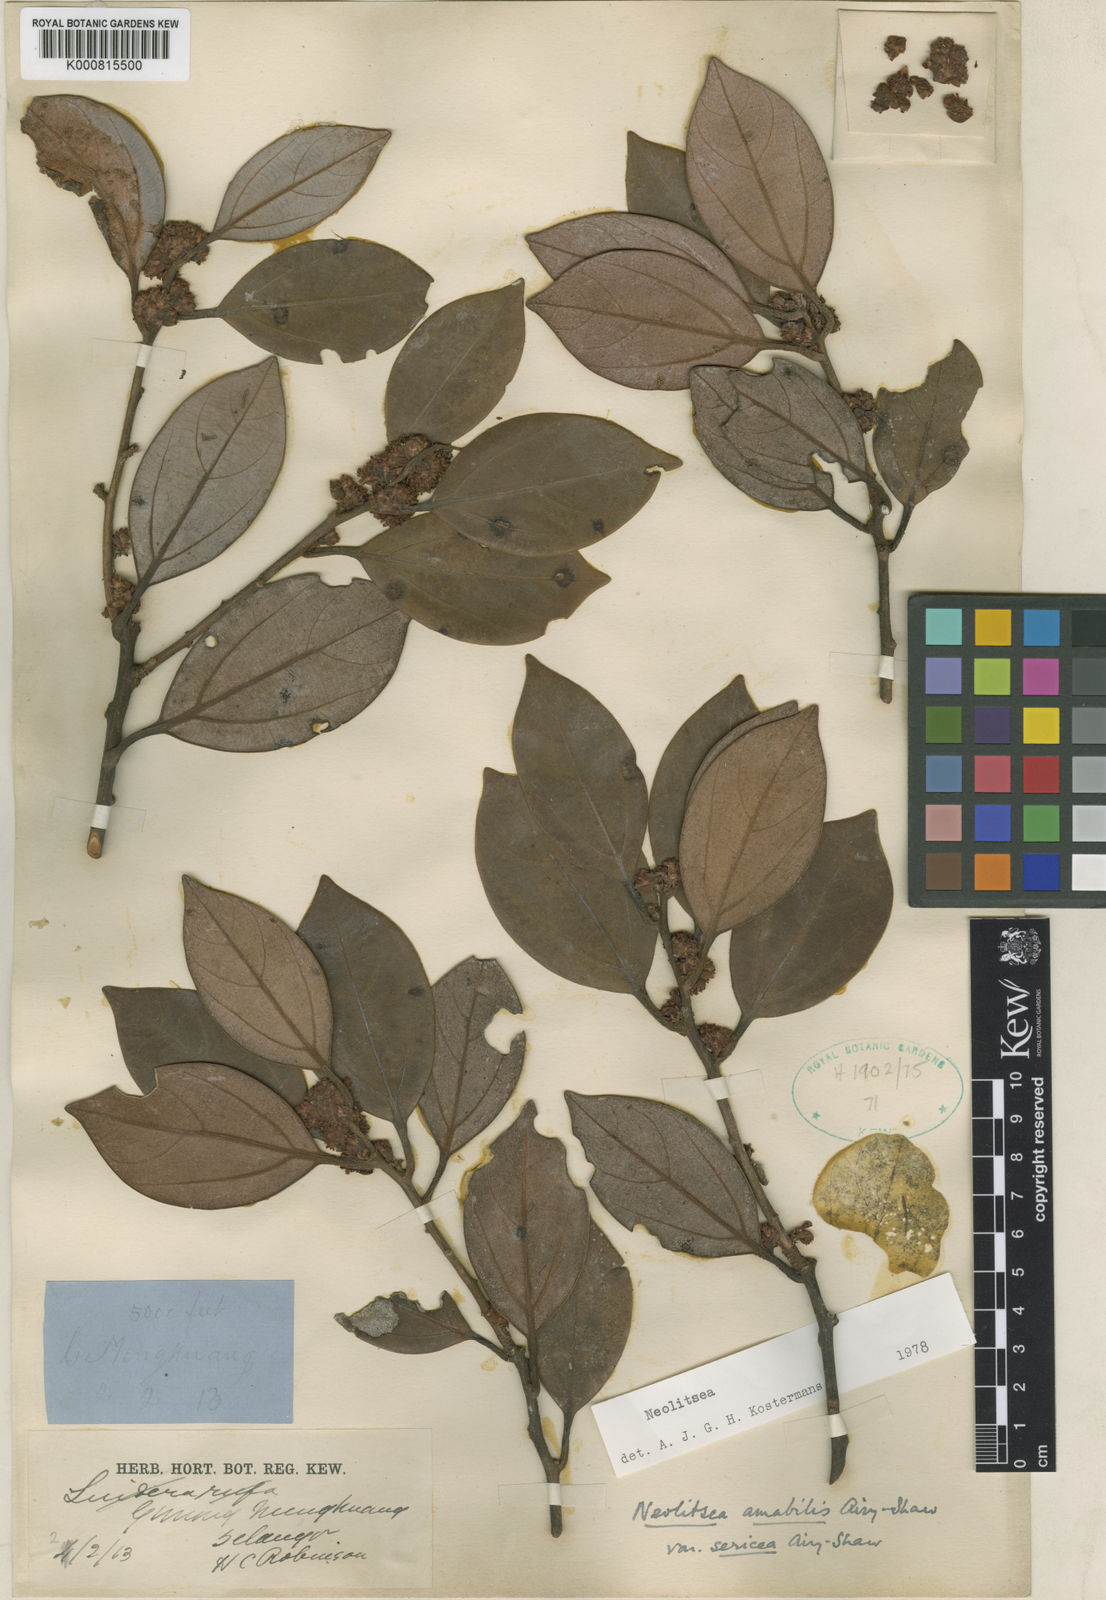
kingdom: Plantae
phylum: Tracheophyta
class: Magnoliopsida
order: Laurales
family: Lauraceae
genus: Neolitsea
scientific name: Neolitsea amabilis
